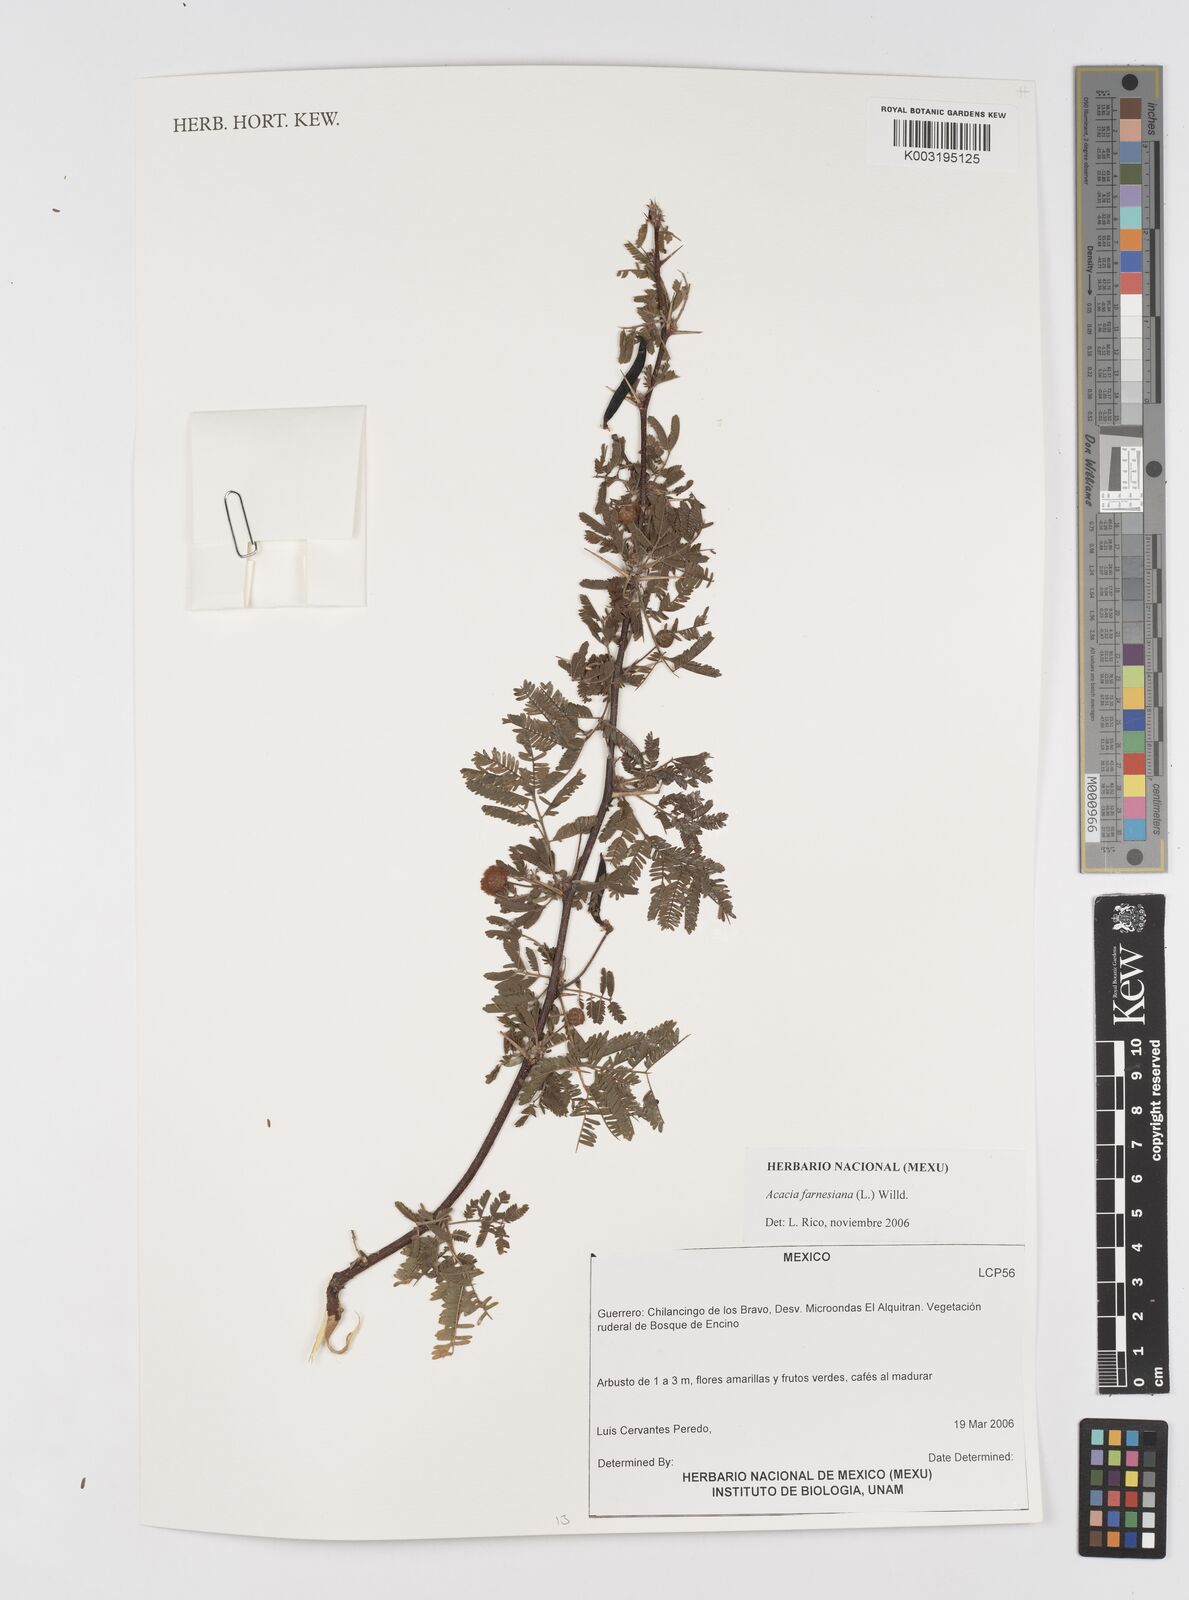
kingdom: Plantae
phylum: Tracheophyta
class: Magnoliopsida
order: Fabales
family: Fabaceae
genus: Vachellia
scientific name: Vachellia farnesiana
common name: Sweet acacia
